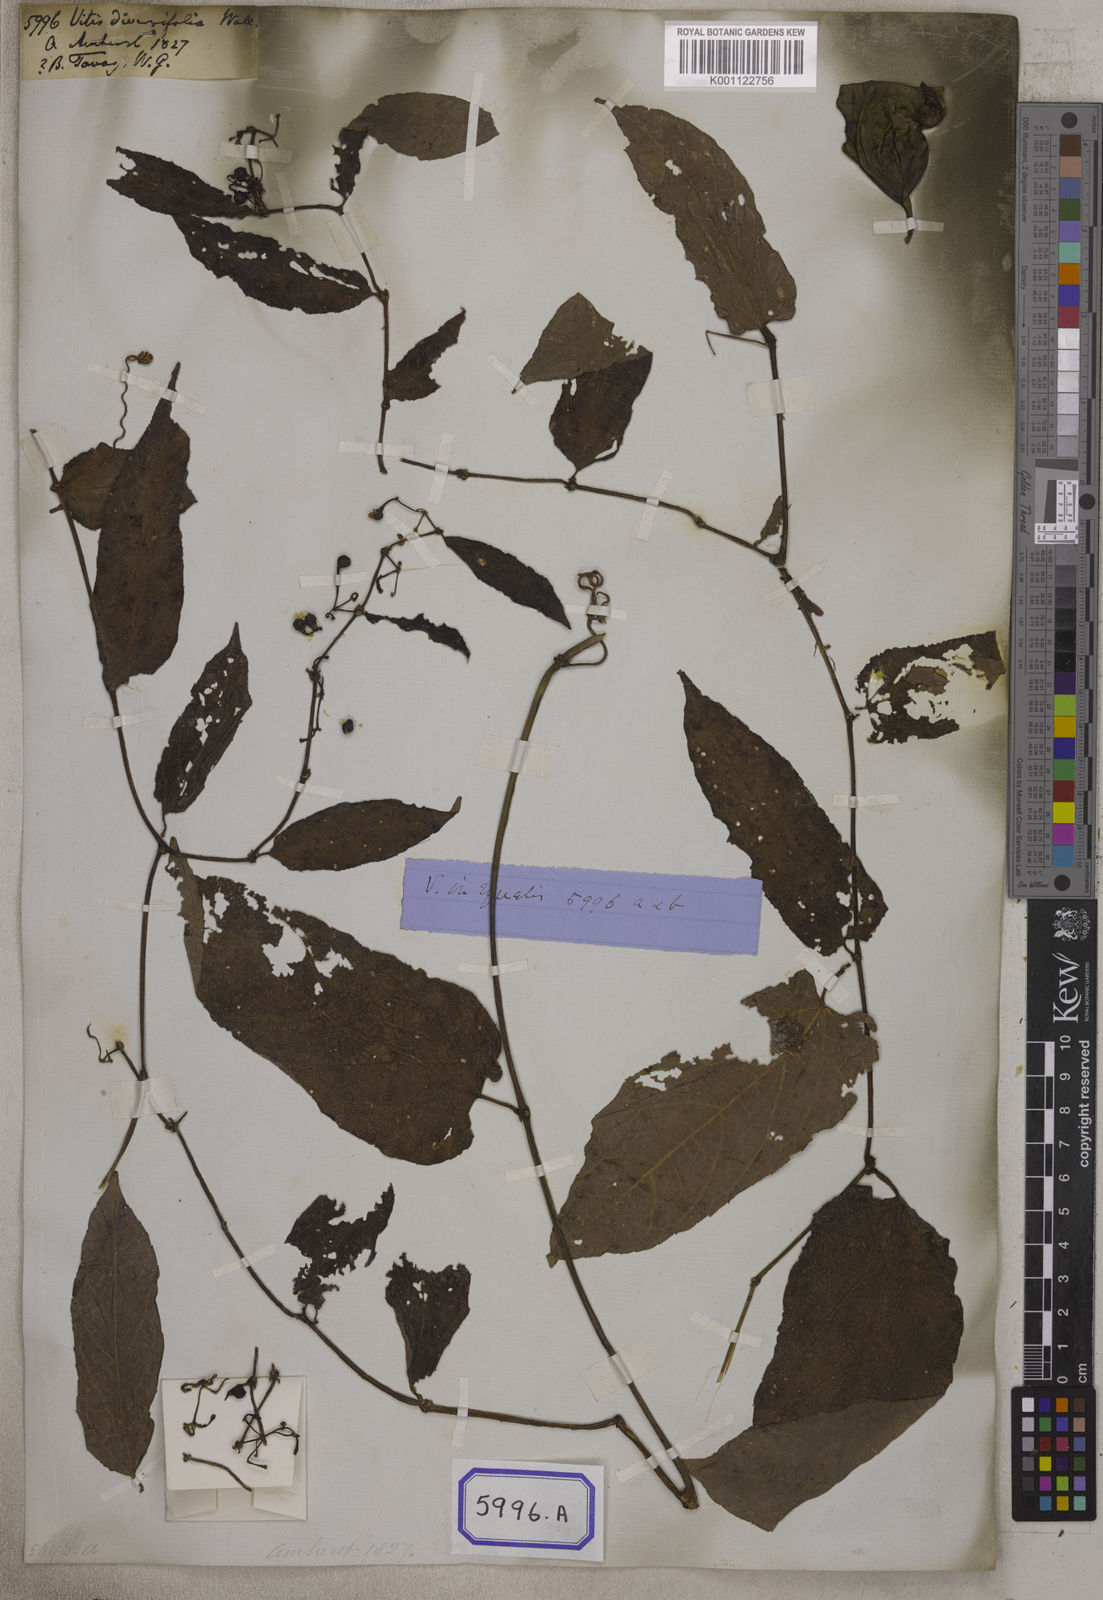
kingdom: Plantae
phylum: Tracheophyta
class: Magnoliopsida
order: Vitales
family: Vitaceae
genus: Cissus
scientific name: Cissus discolor
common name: Climbing-begonia
